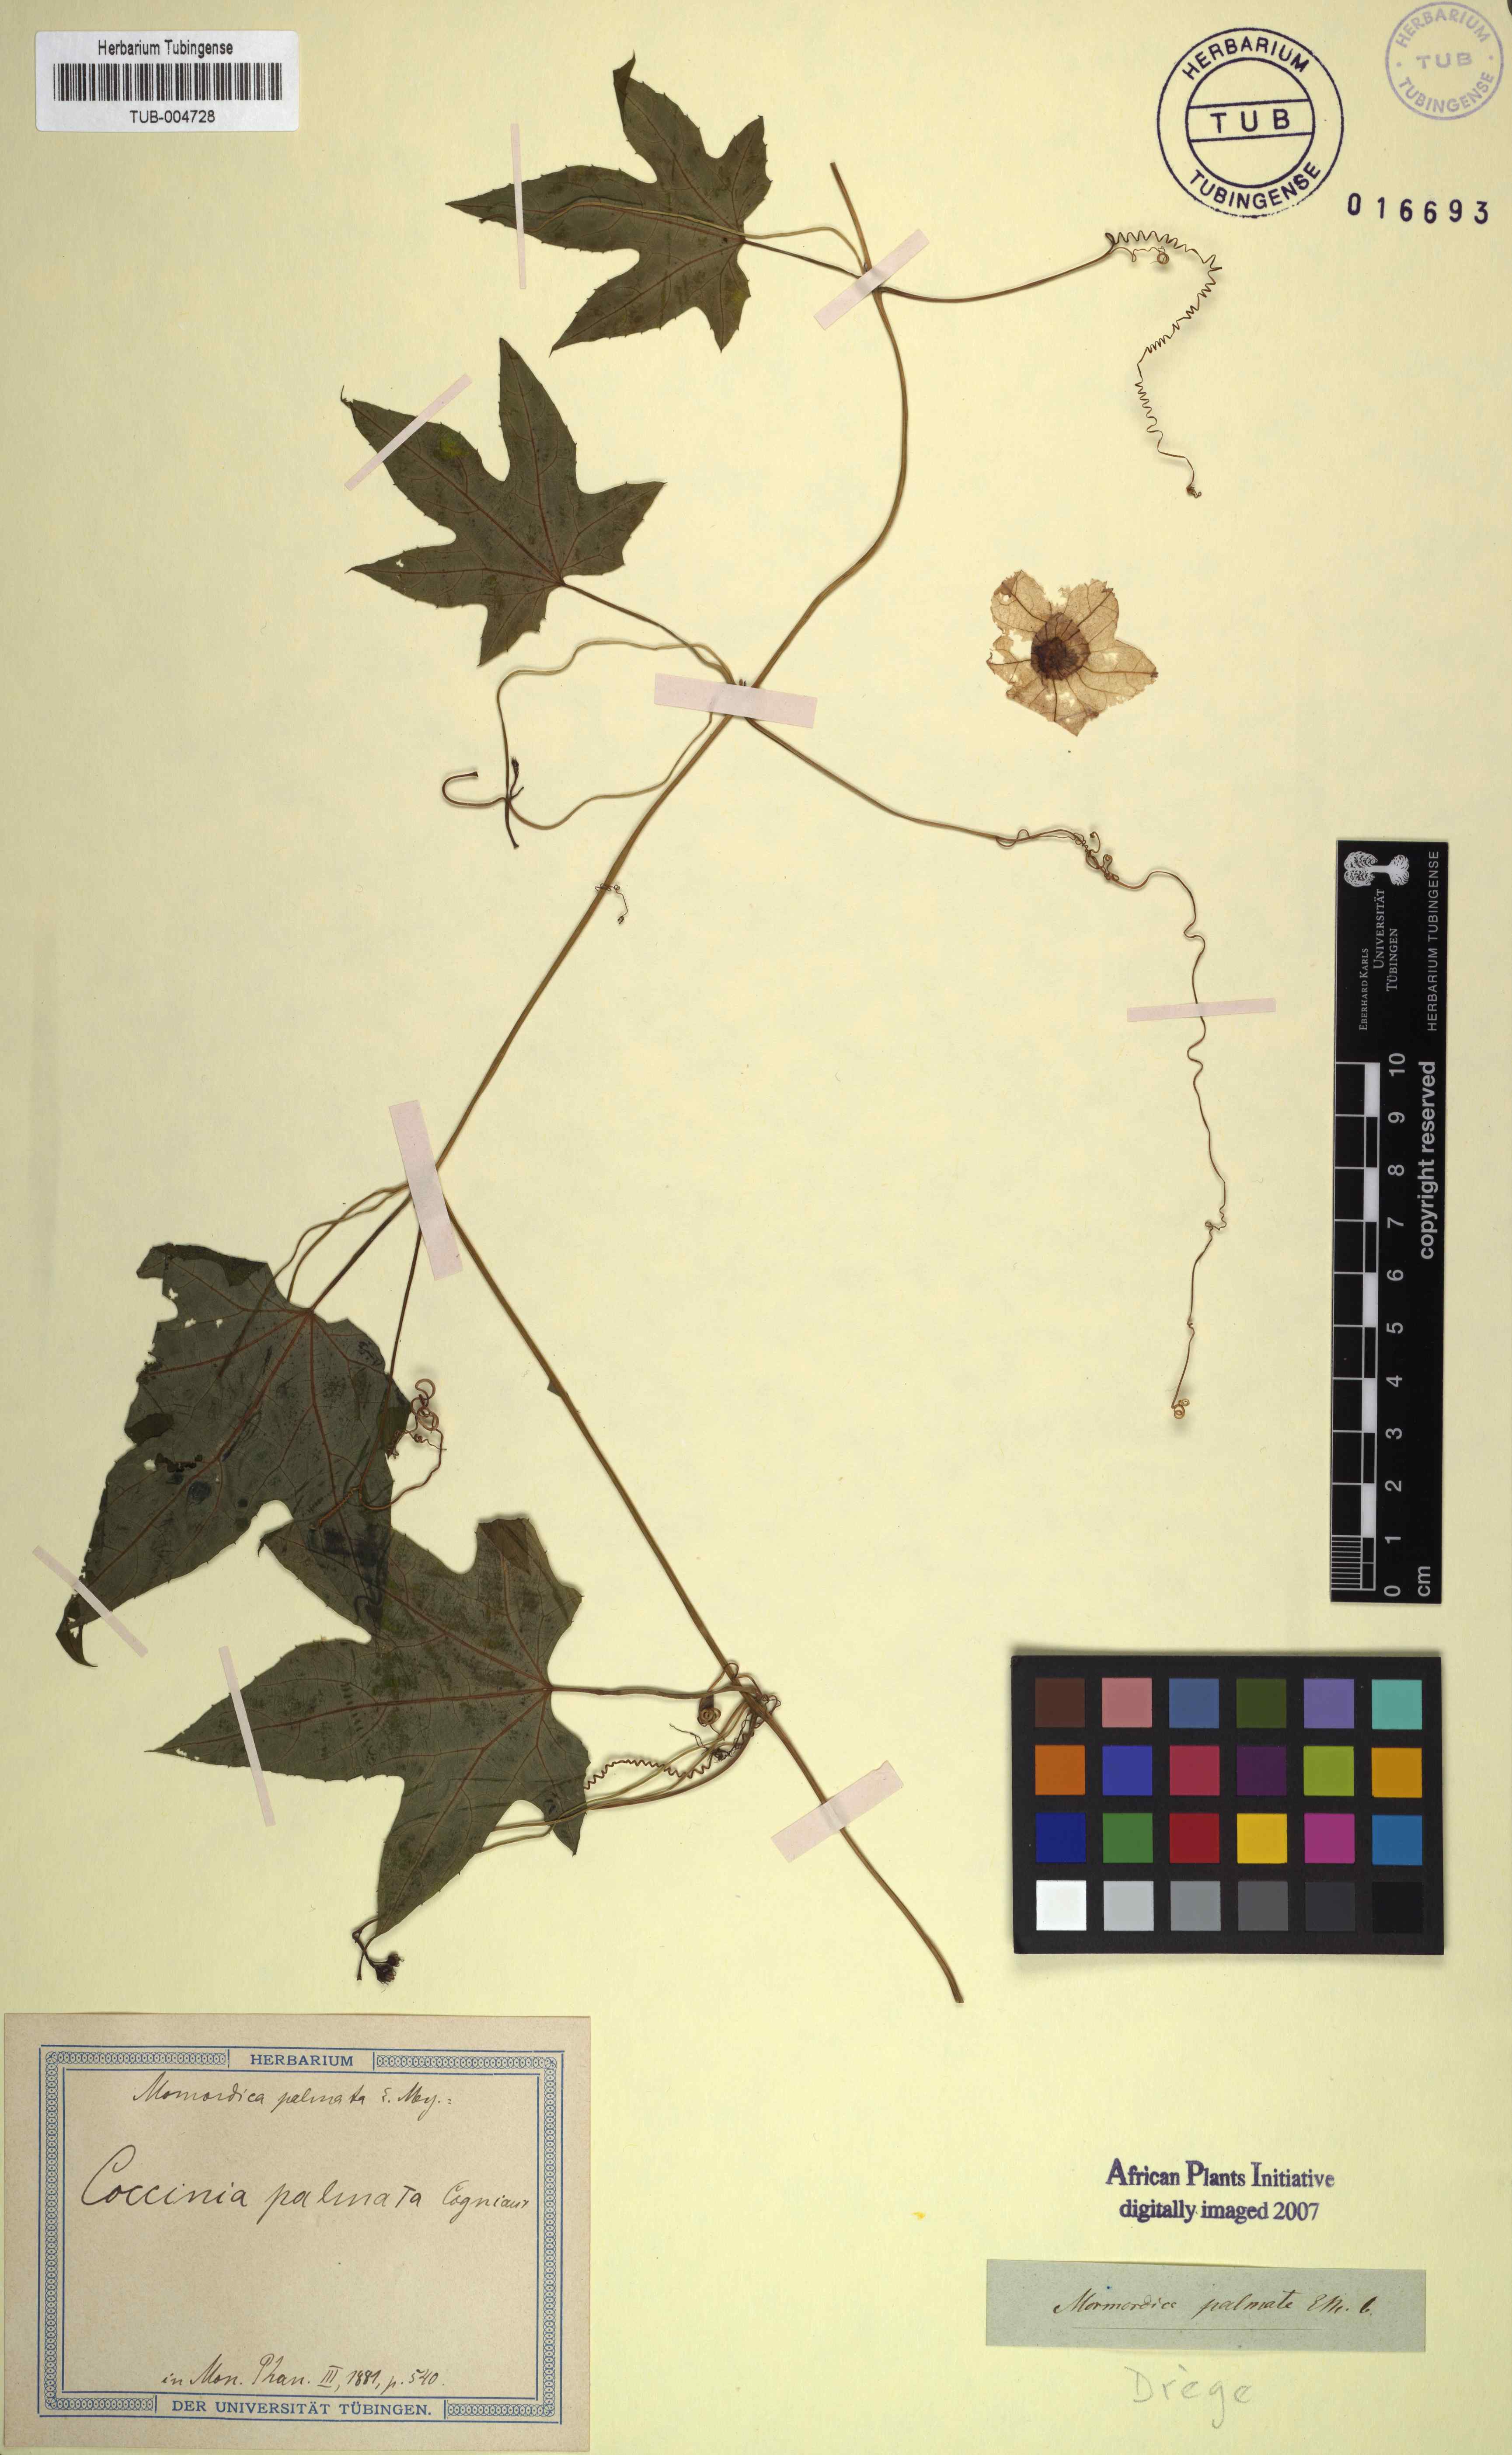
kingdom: Plantae
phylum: Tracheophyta
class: Magnoliopsida
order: Cucurbitales
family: Cucurbitaceae
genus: Coccinia
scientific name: Coccinia palmata
